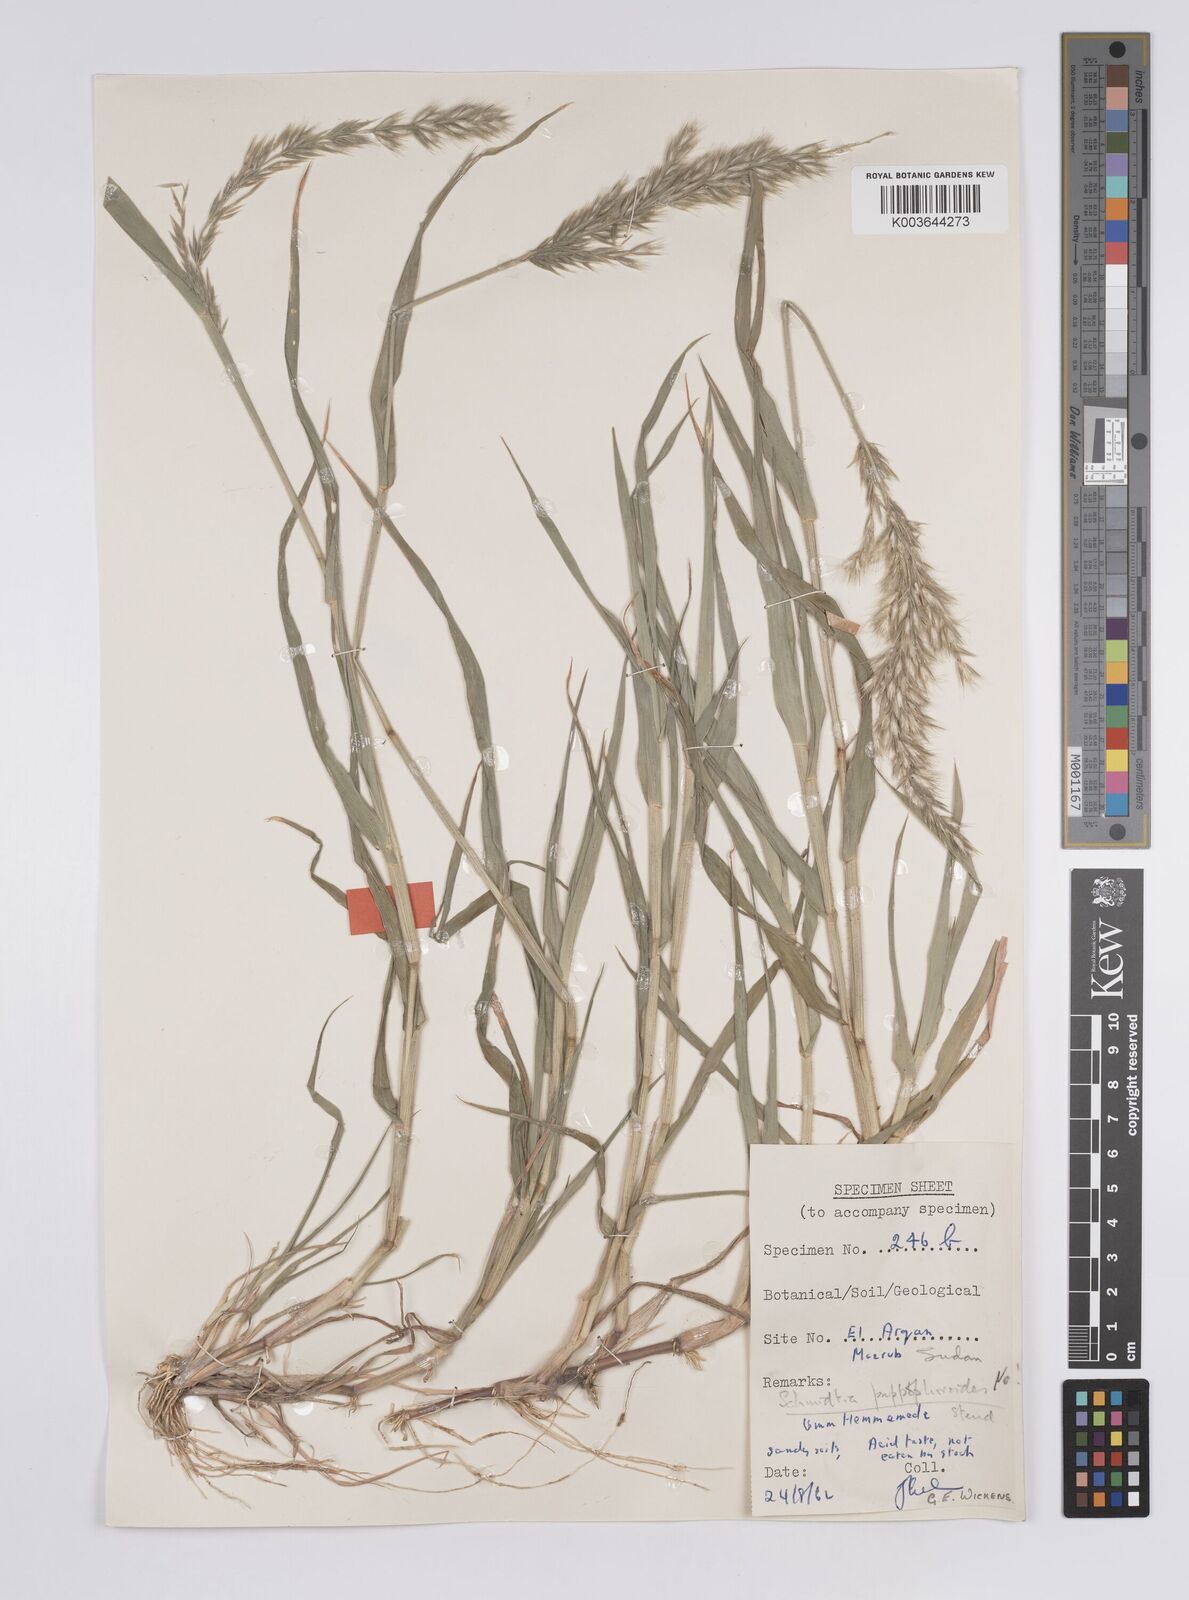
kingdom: Plantae
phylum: Tracheophyta
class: Liliopsida
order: Poales
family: Poaceae
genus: Schmidtia
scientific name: Schmidtia kalahariensis
